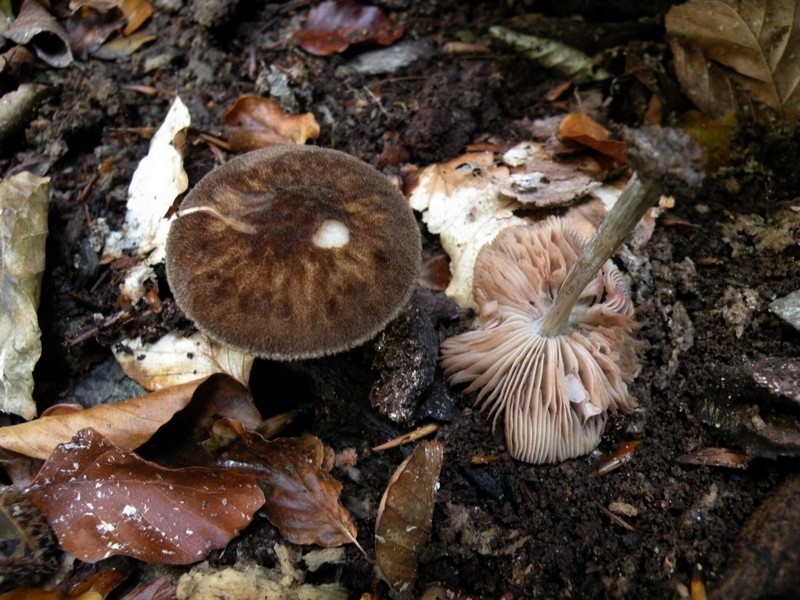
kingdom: Fungi
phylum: Basidiomycota
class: Agaricomycetes
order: Agaricales
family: Pluteaceae
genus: Pluteus
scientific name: Pluteus umbrosus
